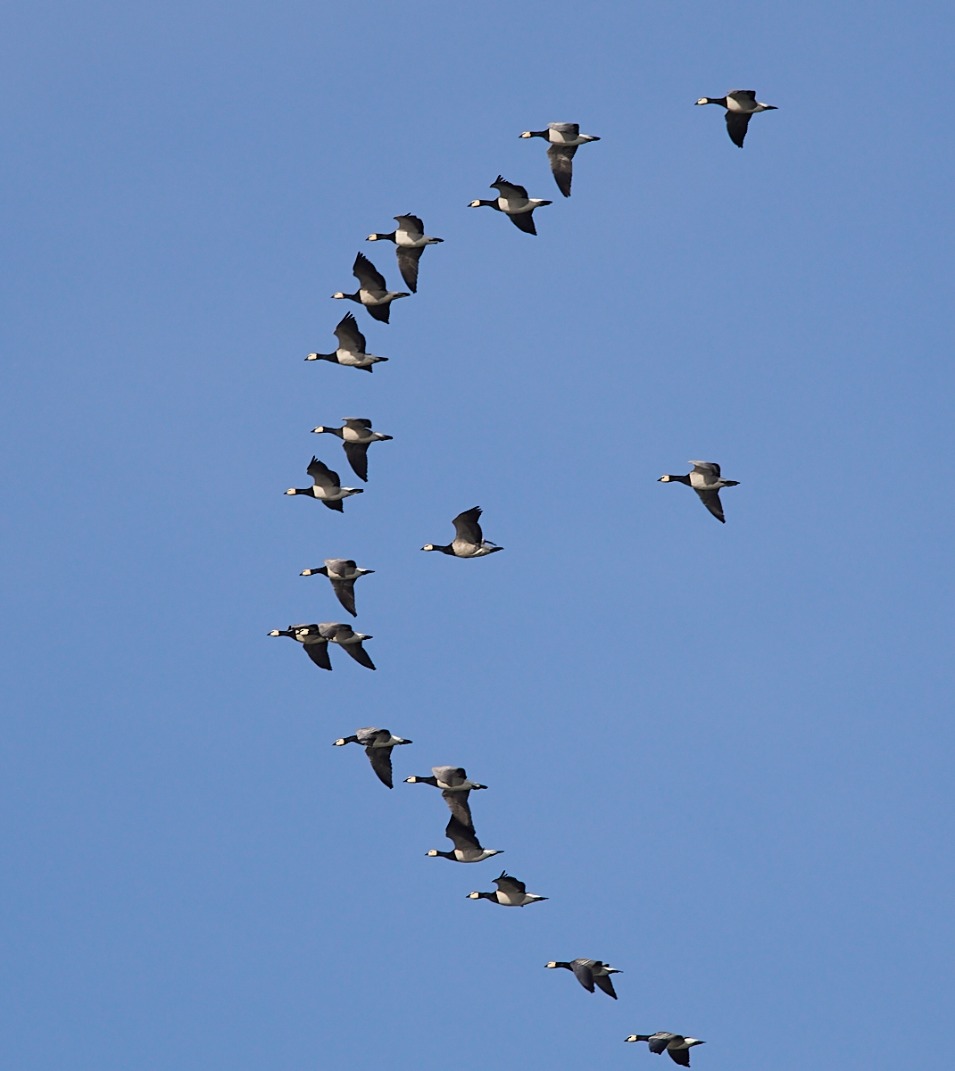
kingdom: Animalia
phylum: Chordata
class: Aves
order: Anseriformes
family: Anatidae
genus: Branta
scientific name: Branta leucopsis
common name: Bramgås
